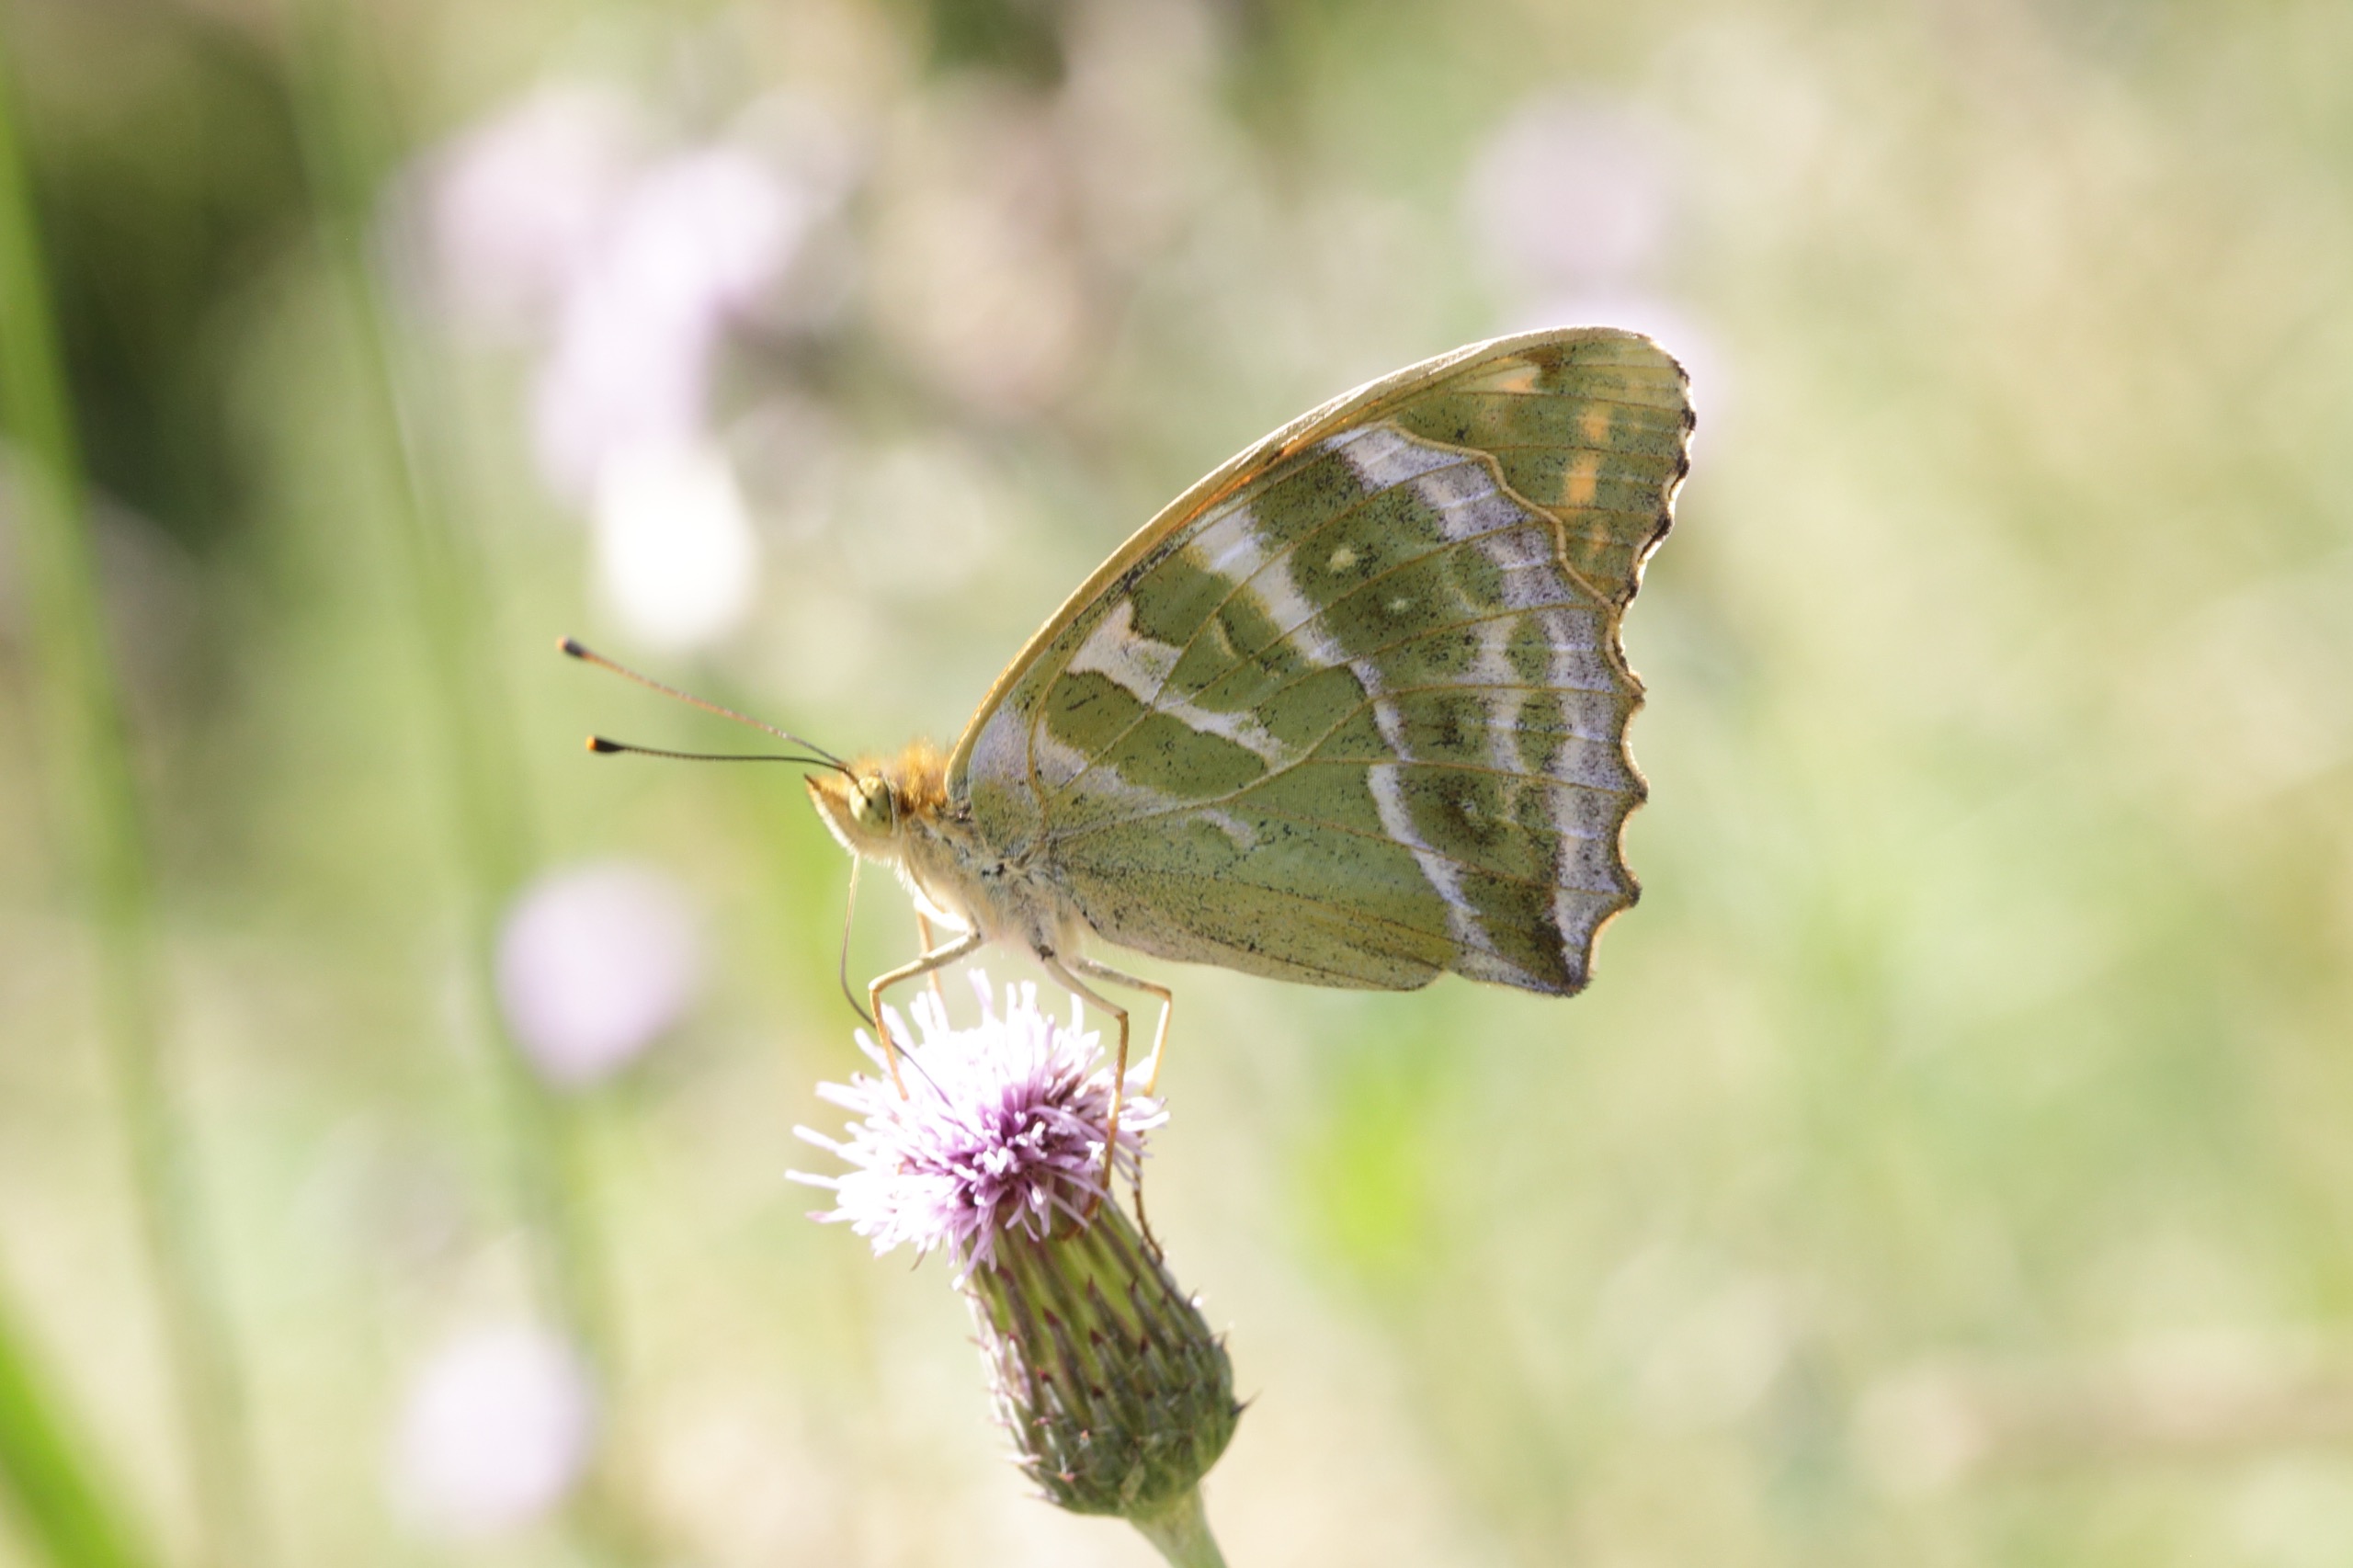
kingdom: Animalia
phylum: Arthropoda
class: Insecta
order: Lepidoptera
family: Nymphalidae
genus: Argynnis
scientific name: Argynnis paphia
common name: Kejserkåbe
